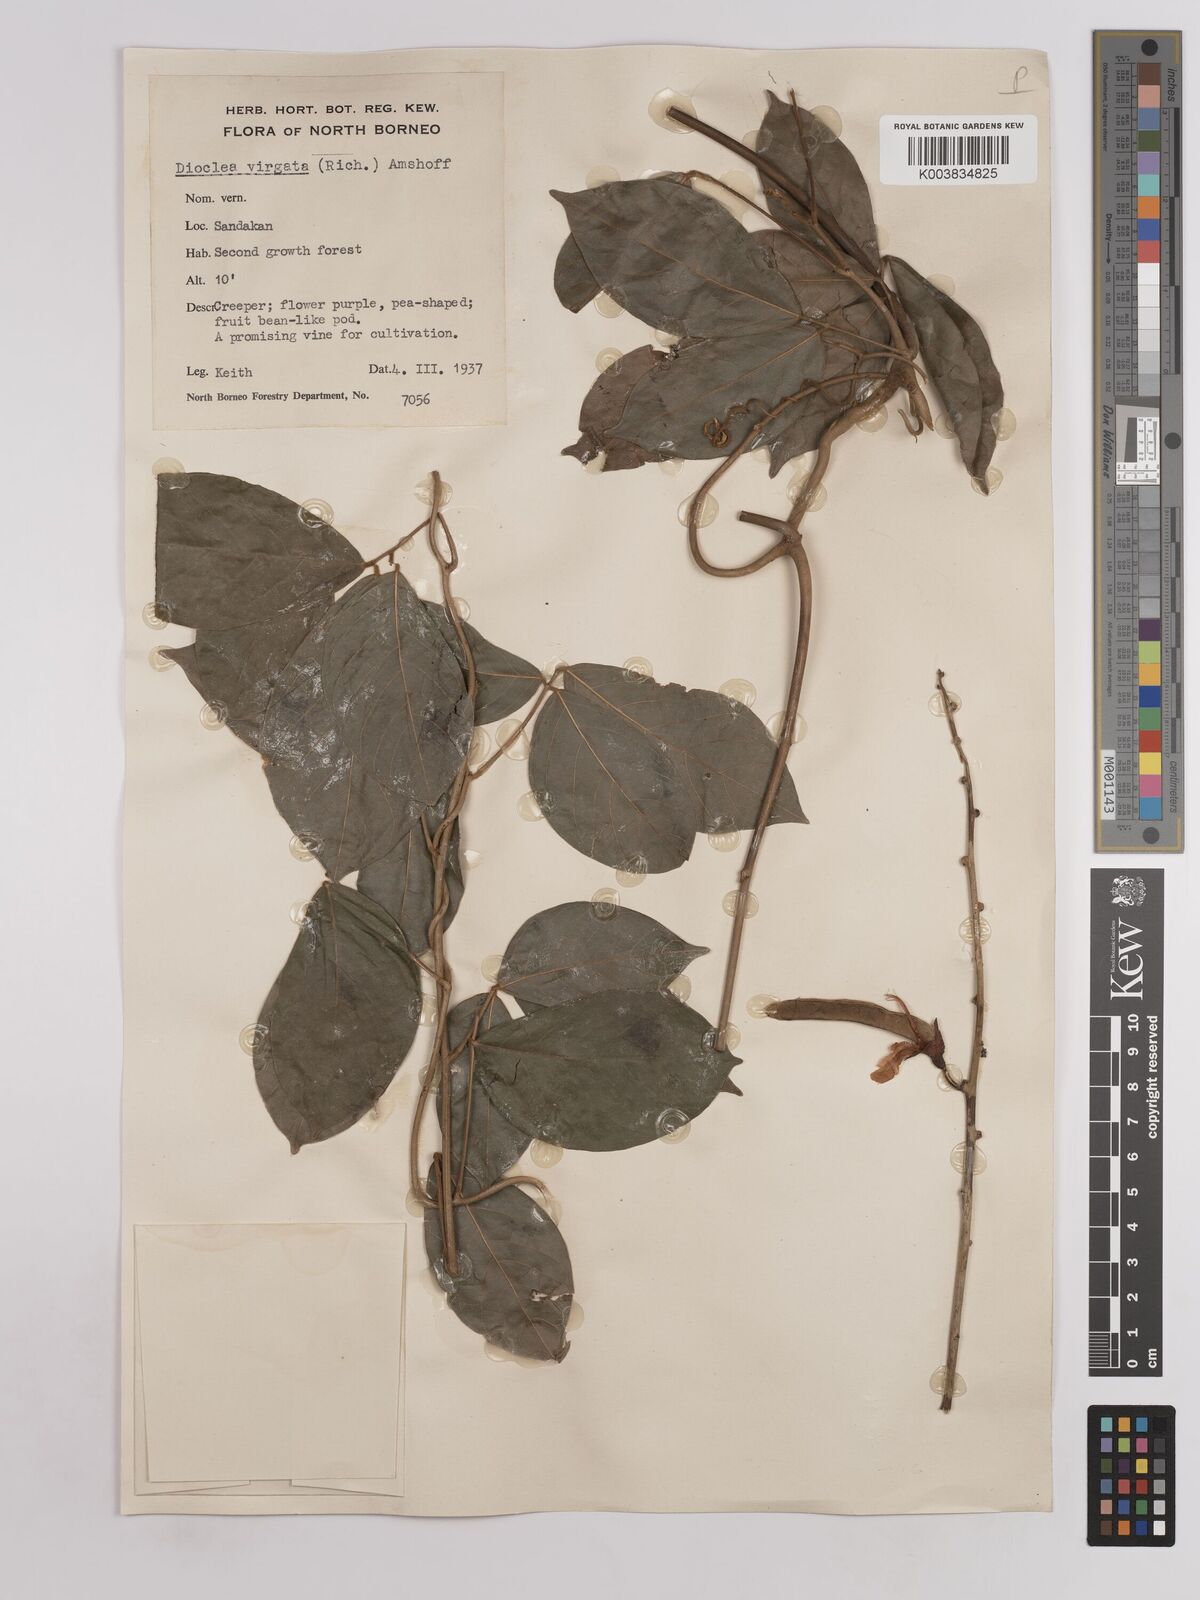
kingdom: Plantae
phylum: Tracheophyta
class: Magnoliopsida
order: Fabales
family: Fabaceae
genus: Dioclea
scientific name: Dioclea virgata
